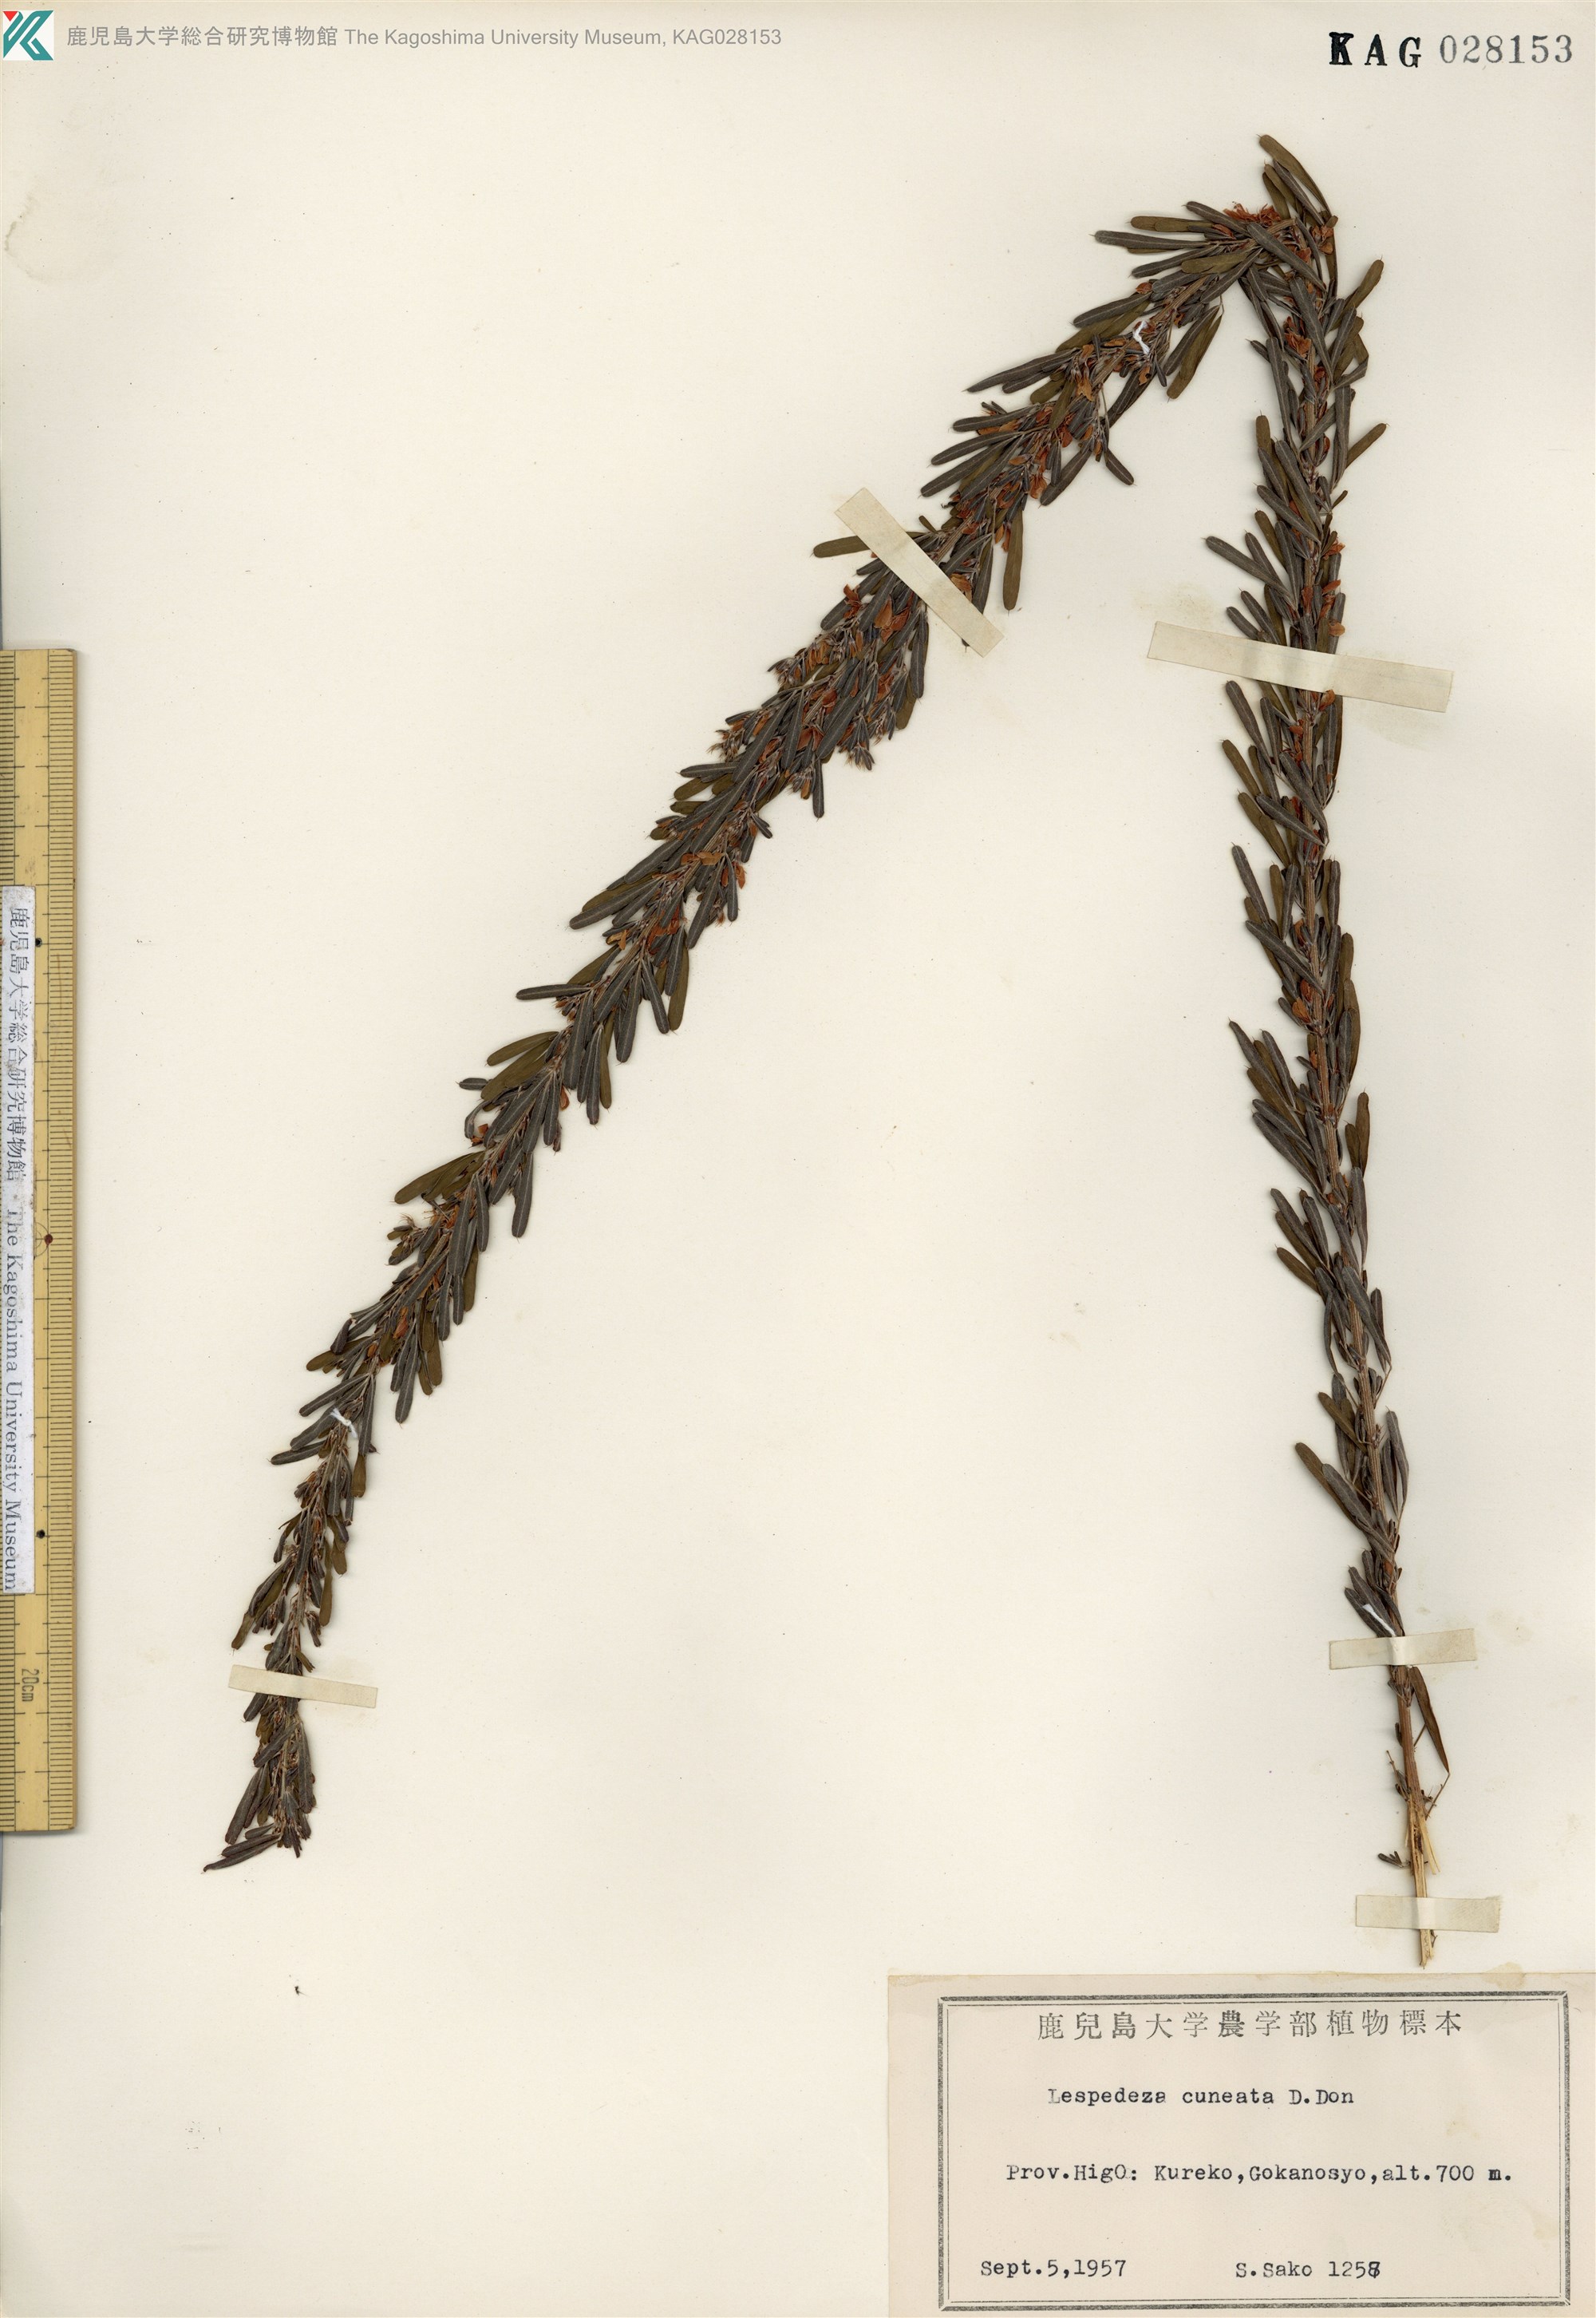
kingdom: Plantae
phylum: Tracheophyta
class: Magnoliopsida
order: Fabales
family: Fabaceae
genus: Lespedeza
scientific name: Lespedeza cuneata
